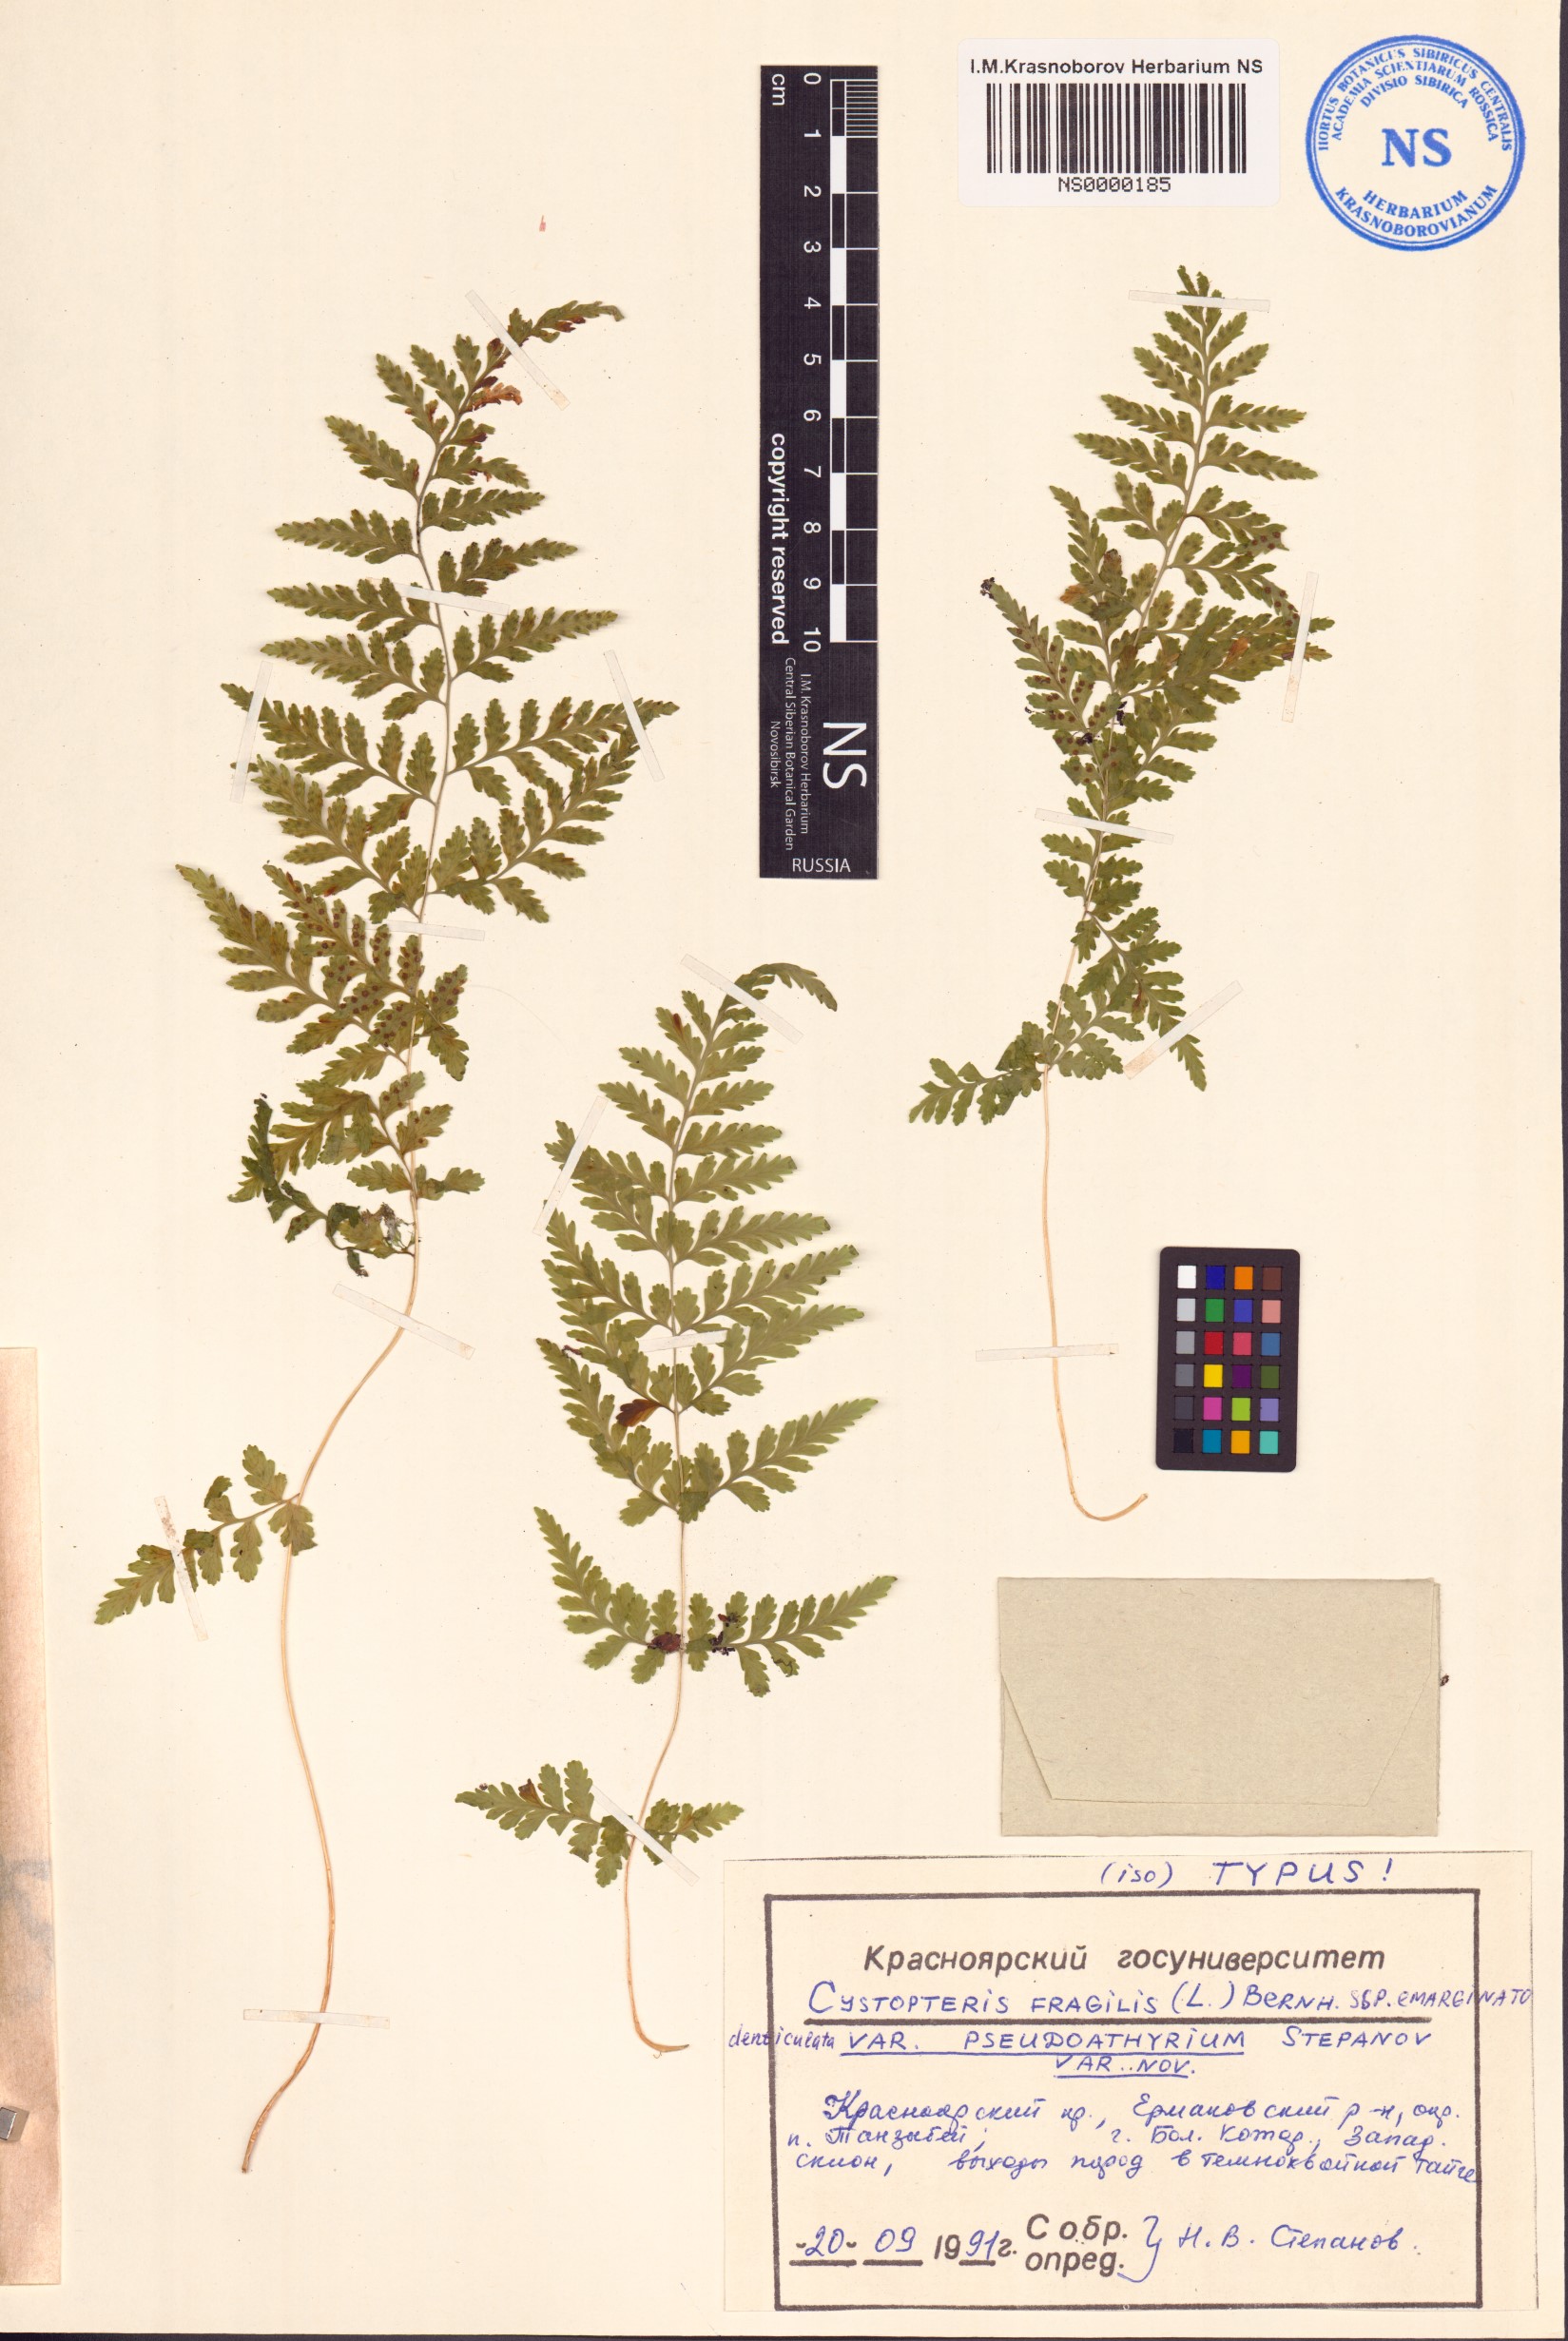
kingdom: Plantae
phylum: Tracheophyta
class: Polypodiopsida
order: Polypodiales
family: Cystopteridaceae
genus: Cystopteris
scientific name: Cystopteris fragilis
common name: Brittle bladder fern
